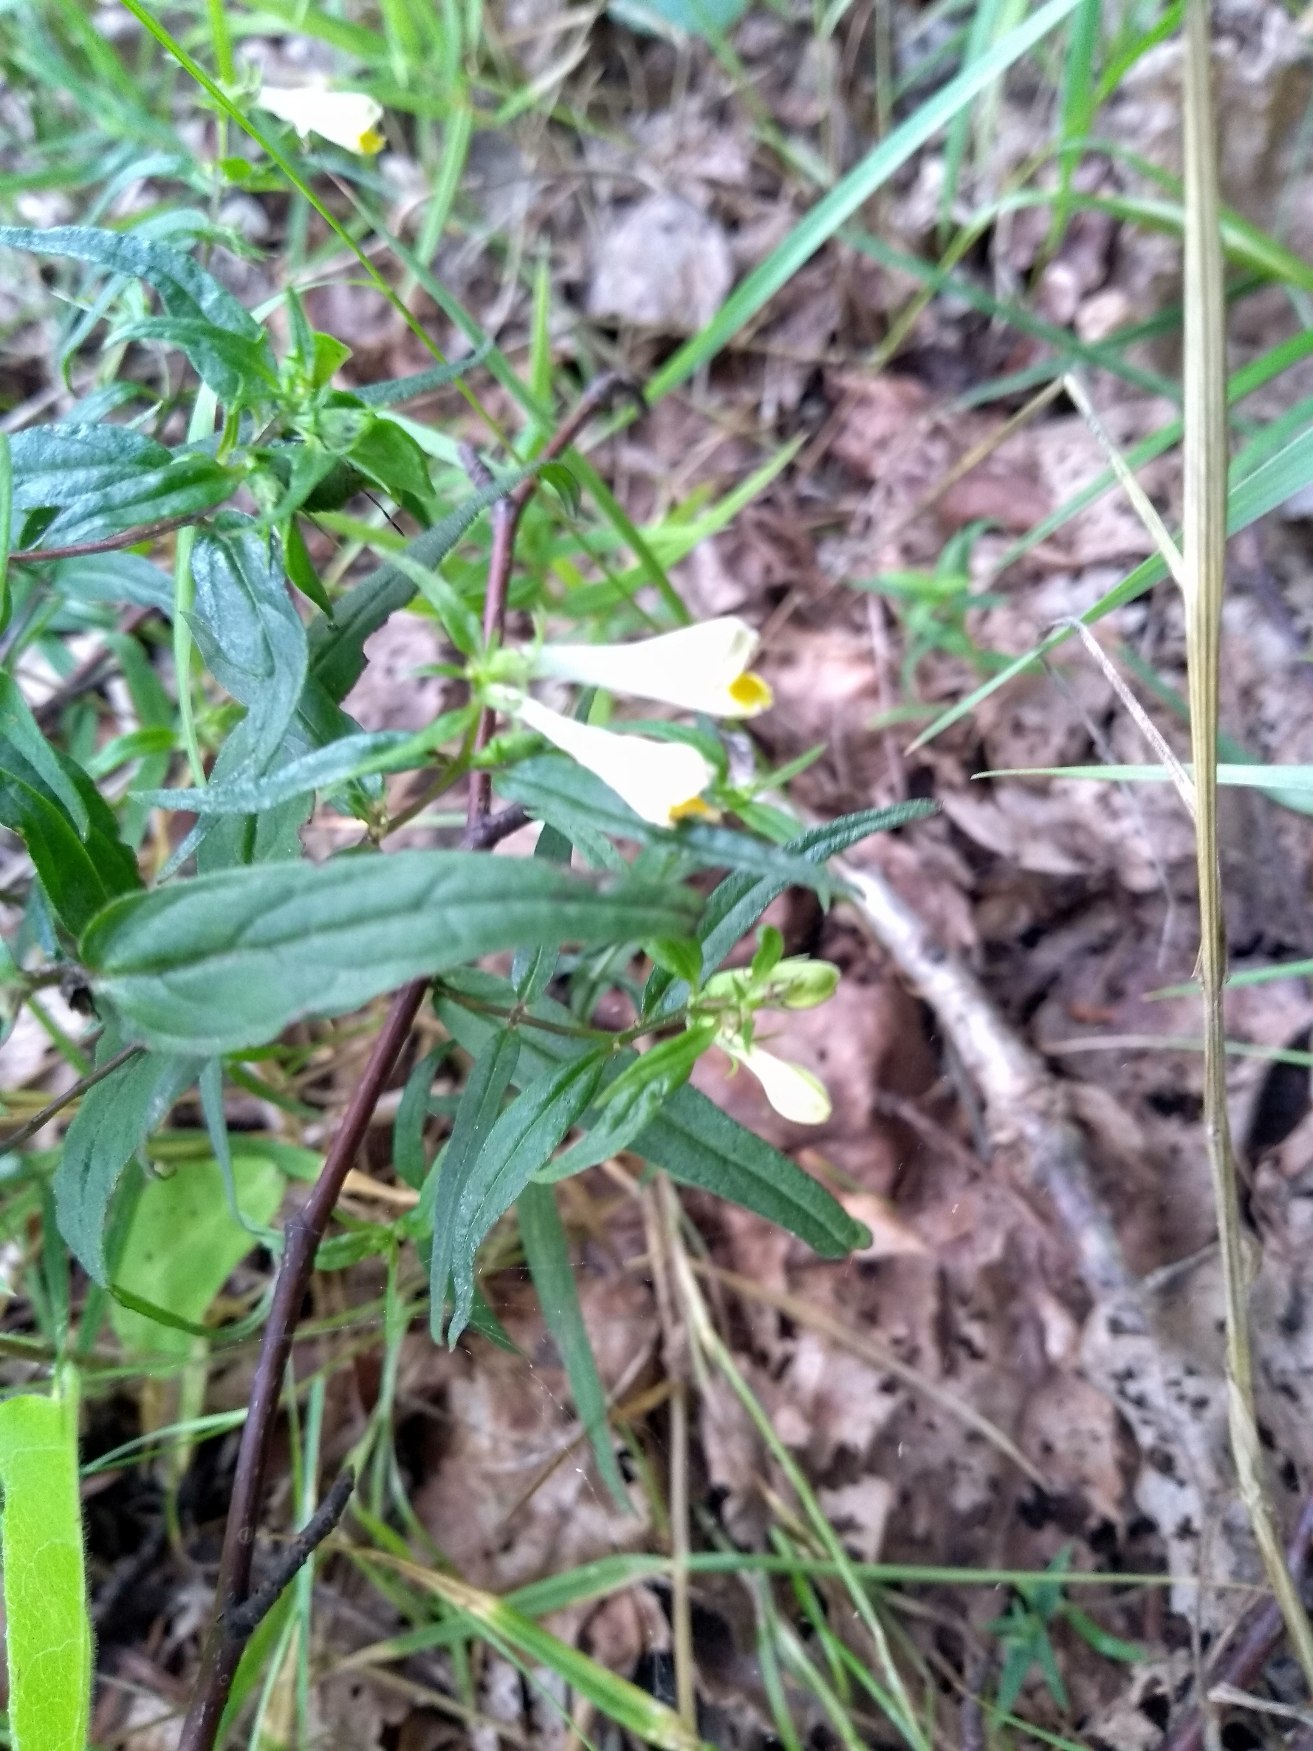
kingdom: Plantae
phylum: Tracheophyta
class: Magnoliopsida
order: Lamiales
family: Orobanchaceae
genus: Melampyrum
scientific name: Melampyrum pratense
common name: Almindelig kohvede
